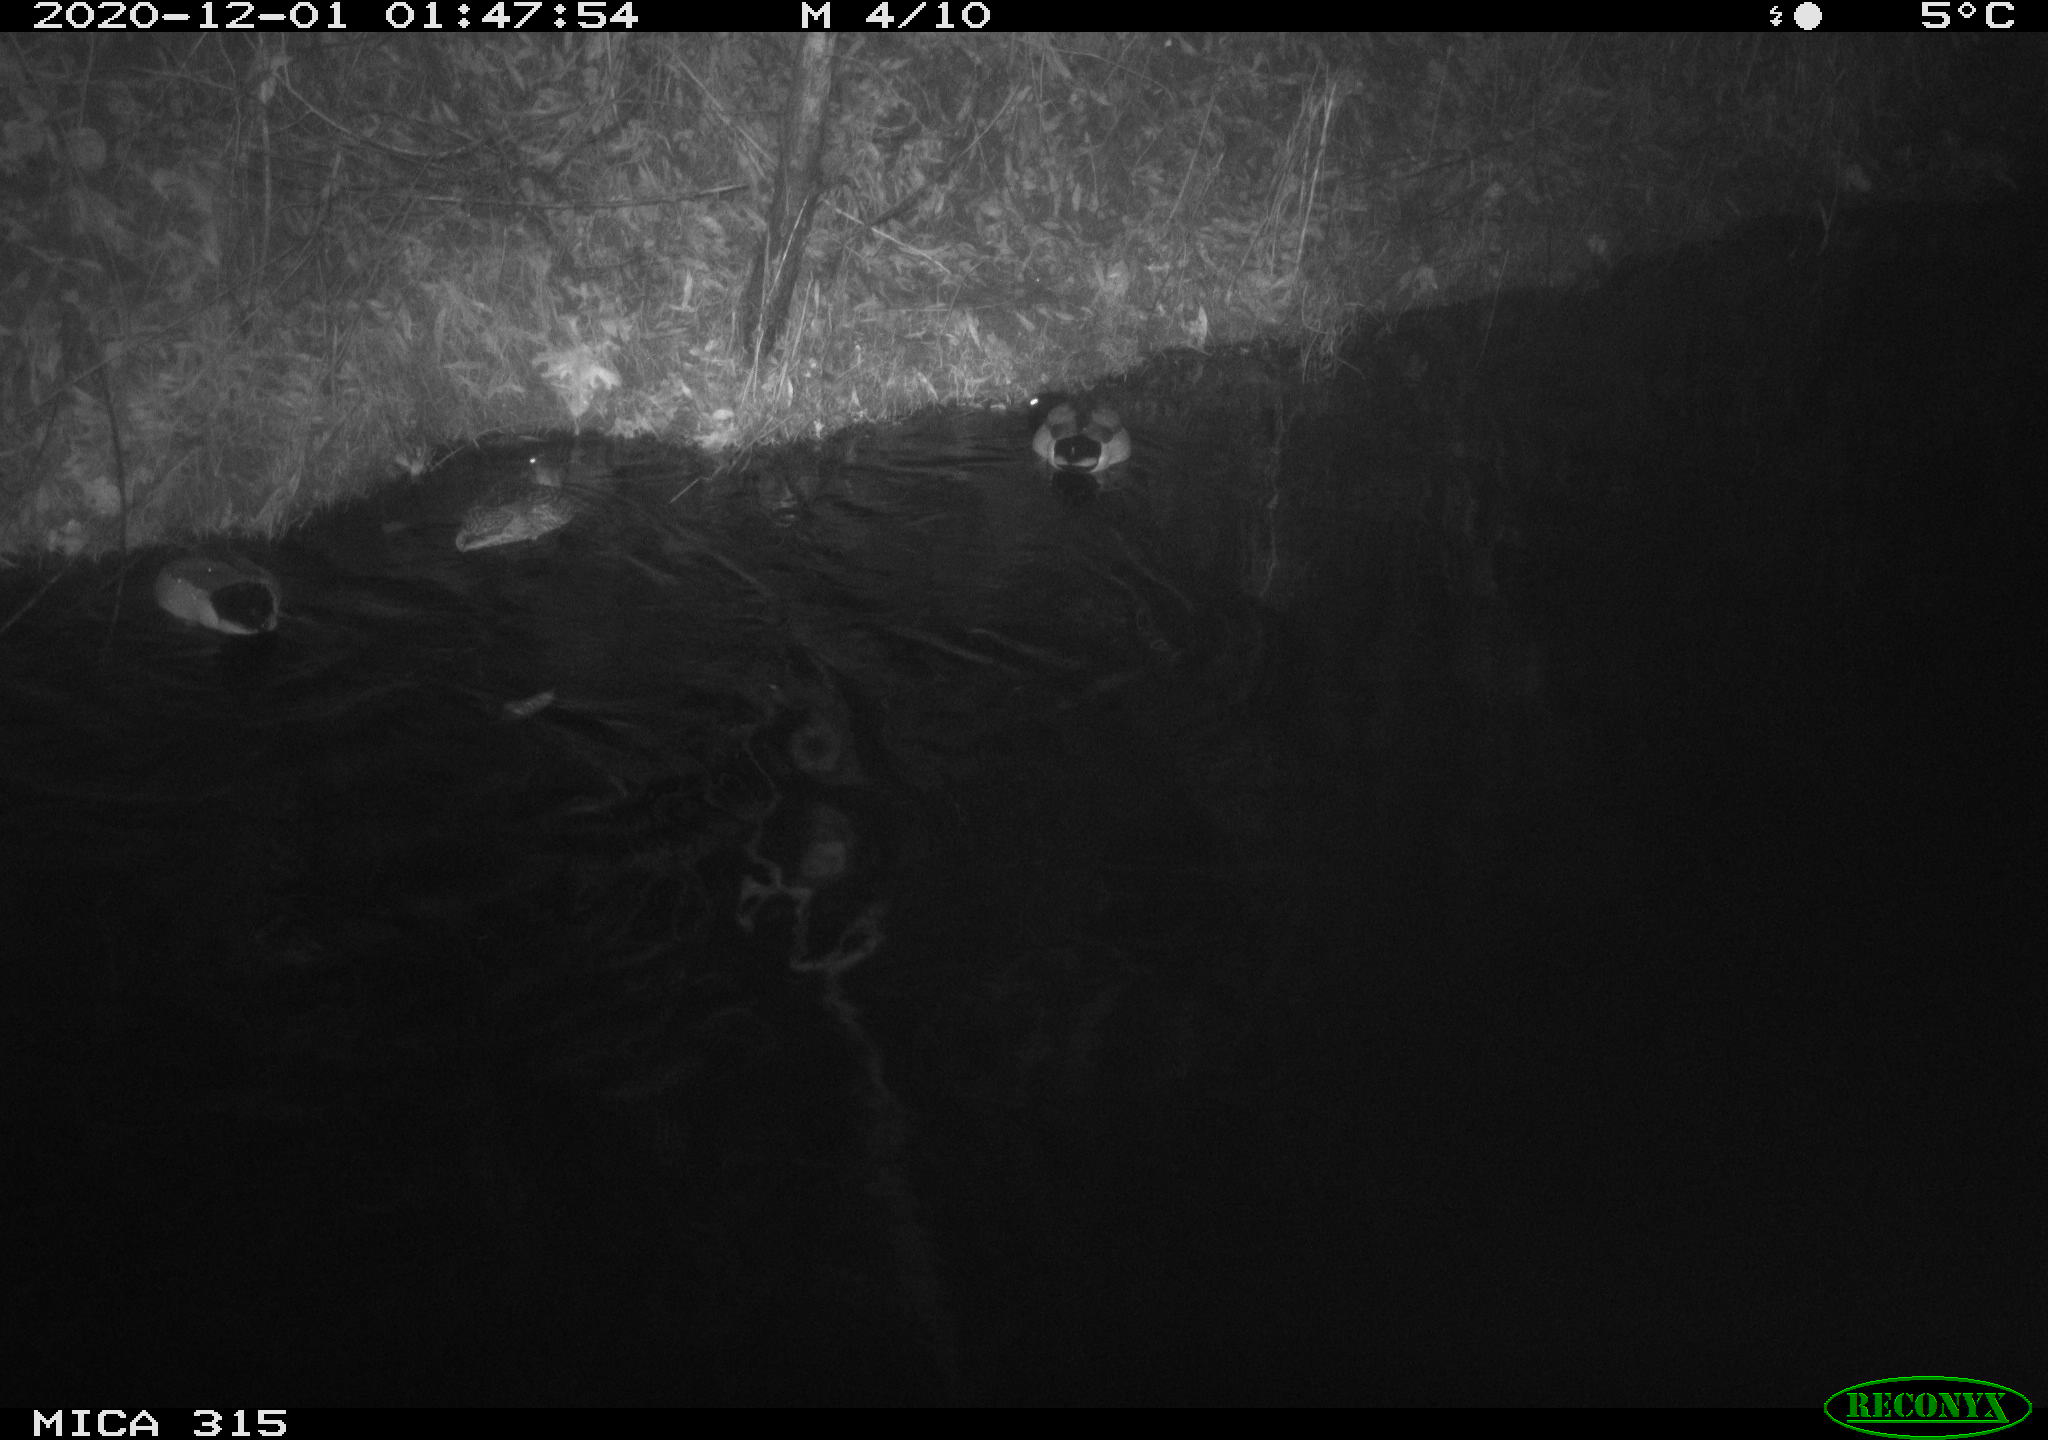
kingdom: Animalia
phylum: Chordata
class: Aves
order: Anseriformes
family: Anatidae
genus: Anas
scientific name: Anas platyrhynchos
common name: Mallard
